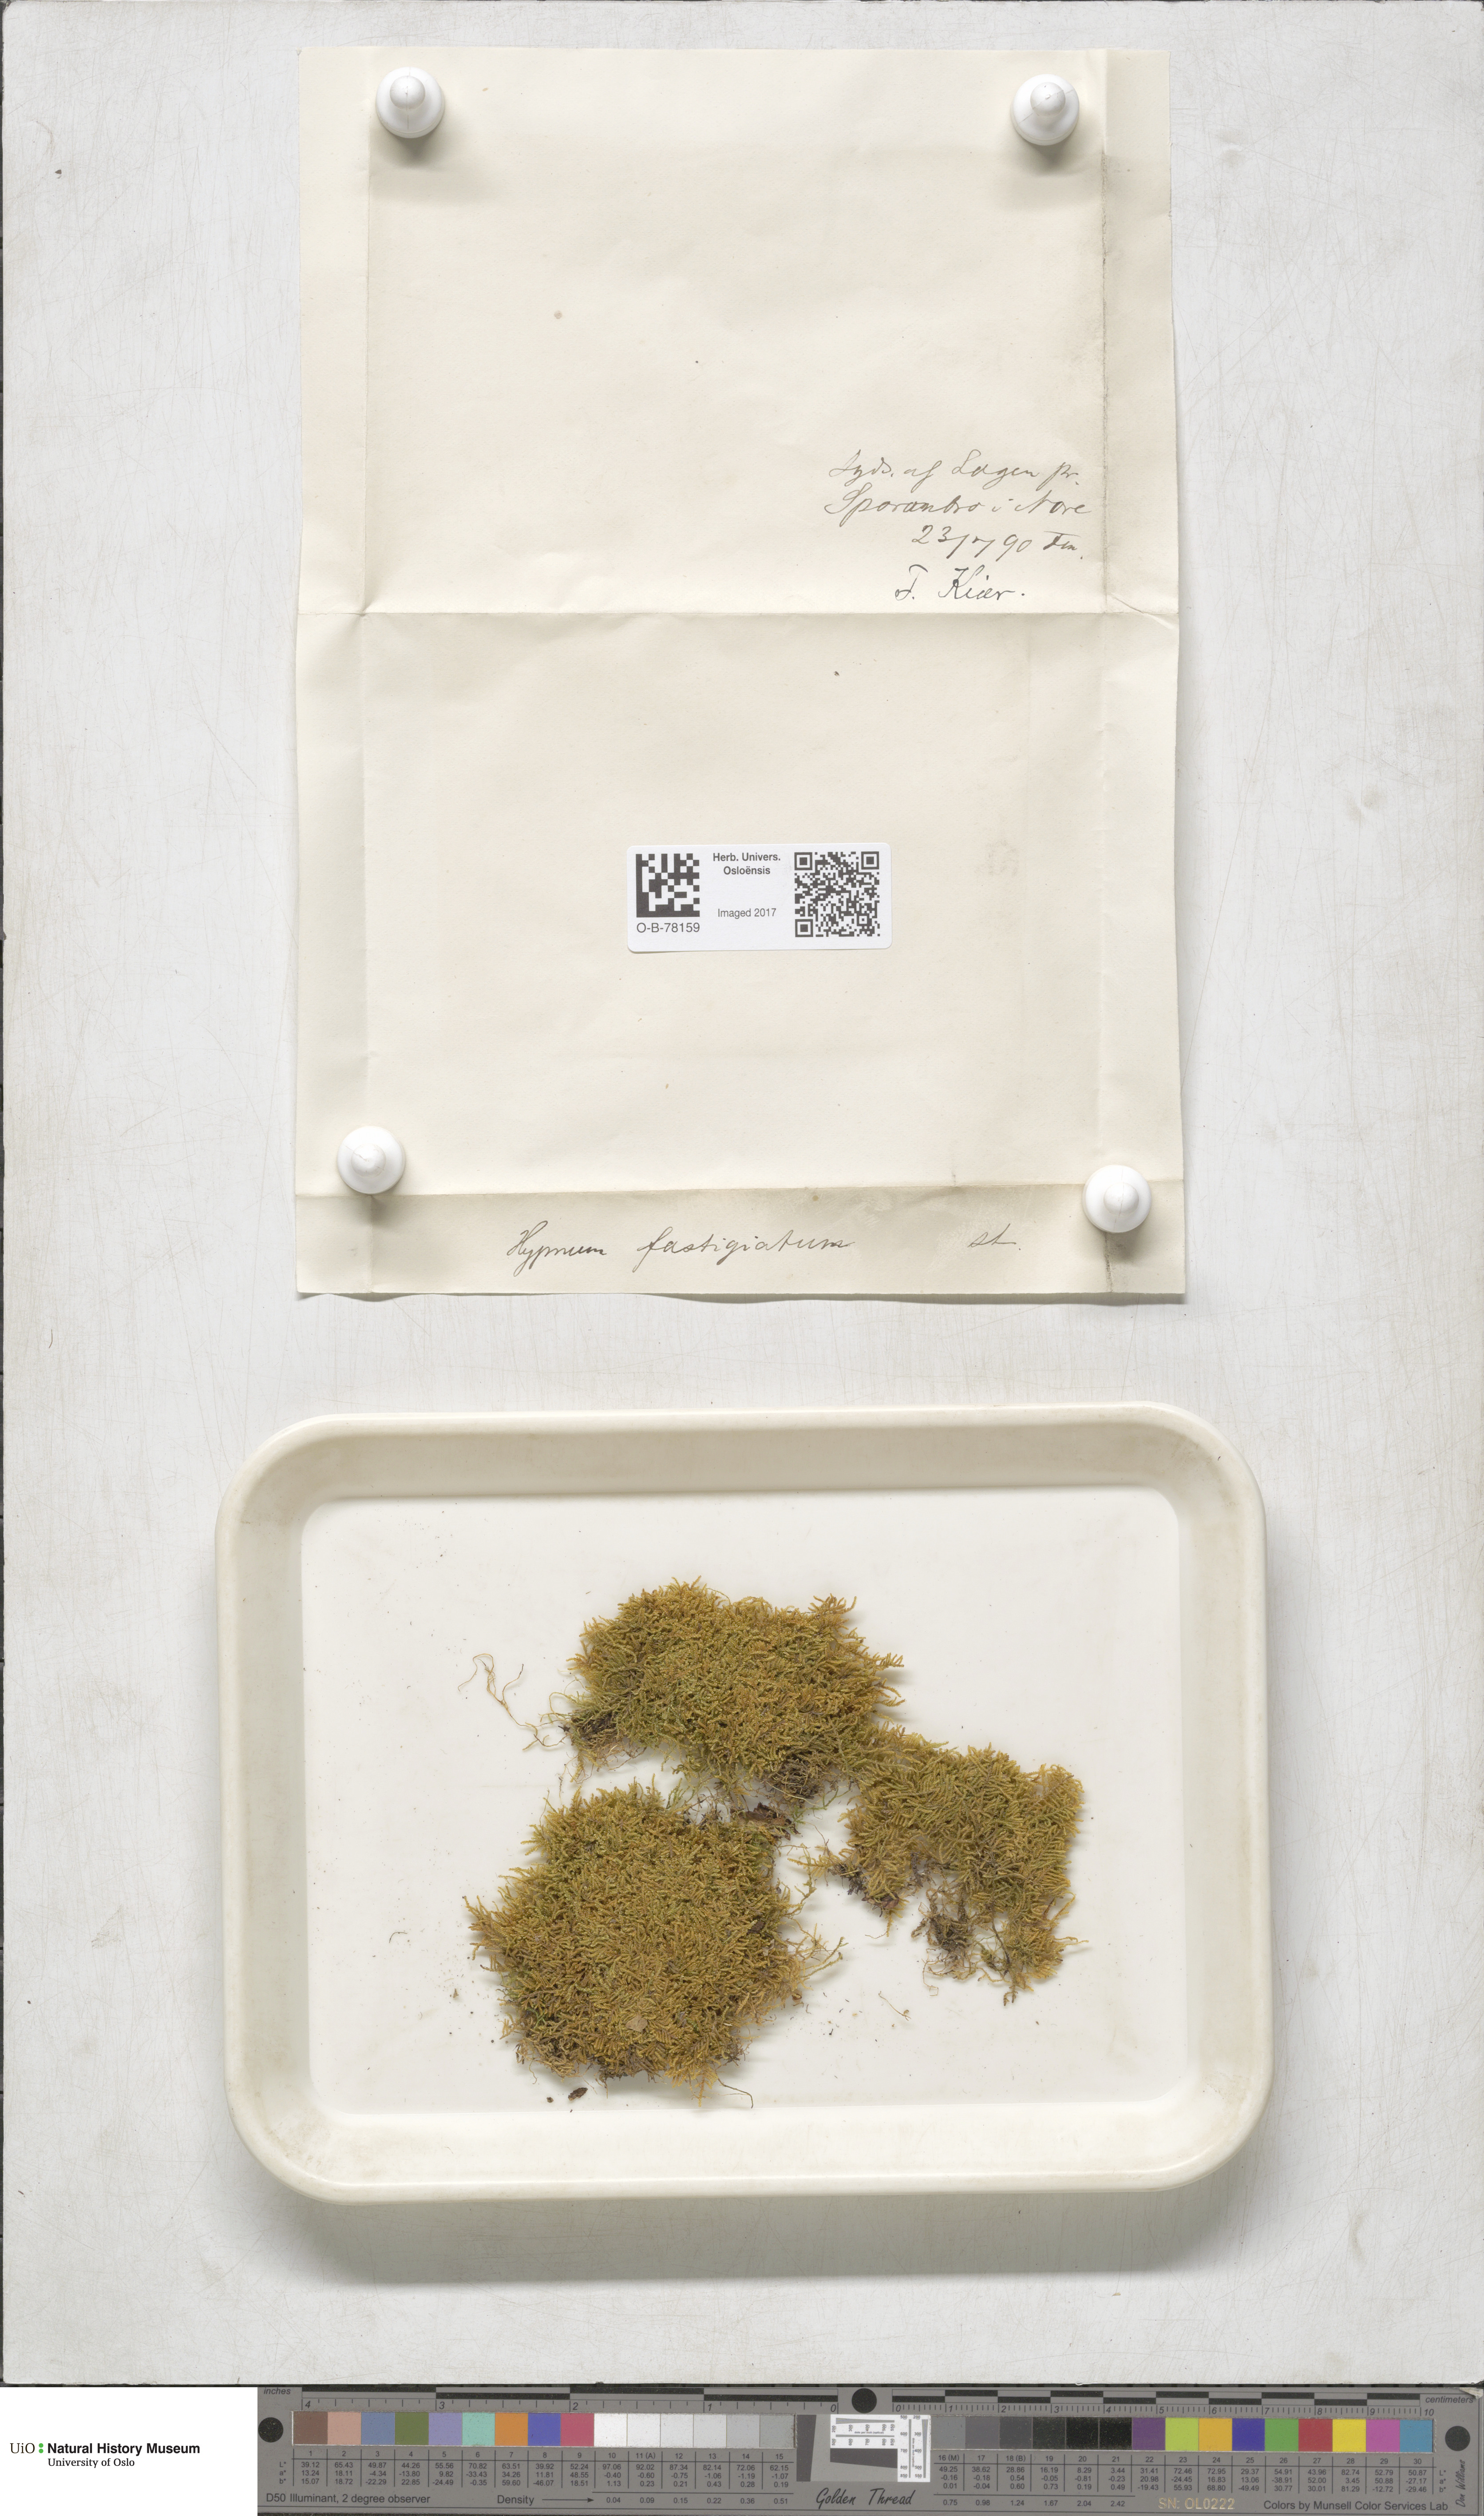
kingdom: Plantae
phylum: Bryophyta
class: Bryopsida
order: Hypnales
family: Amblystegiaceae
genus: Drepanium
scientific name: Drepanium fastigiatum
